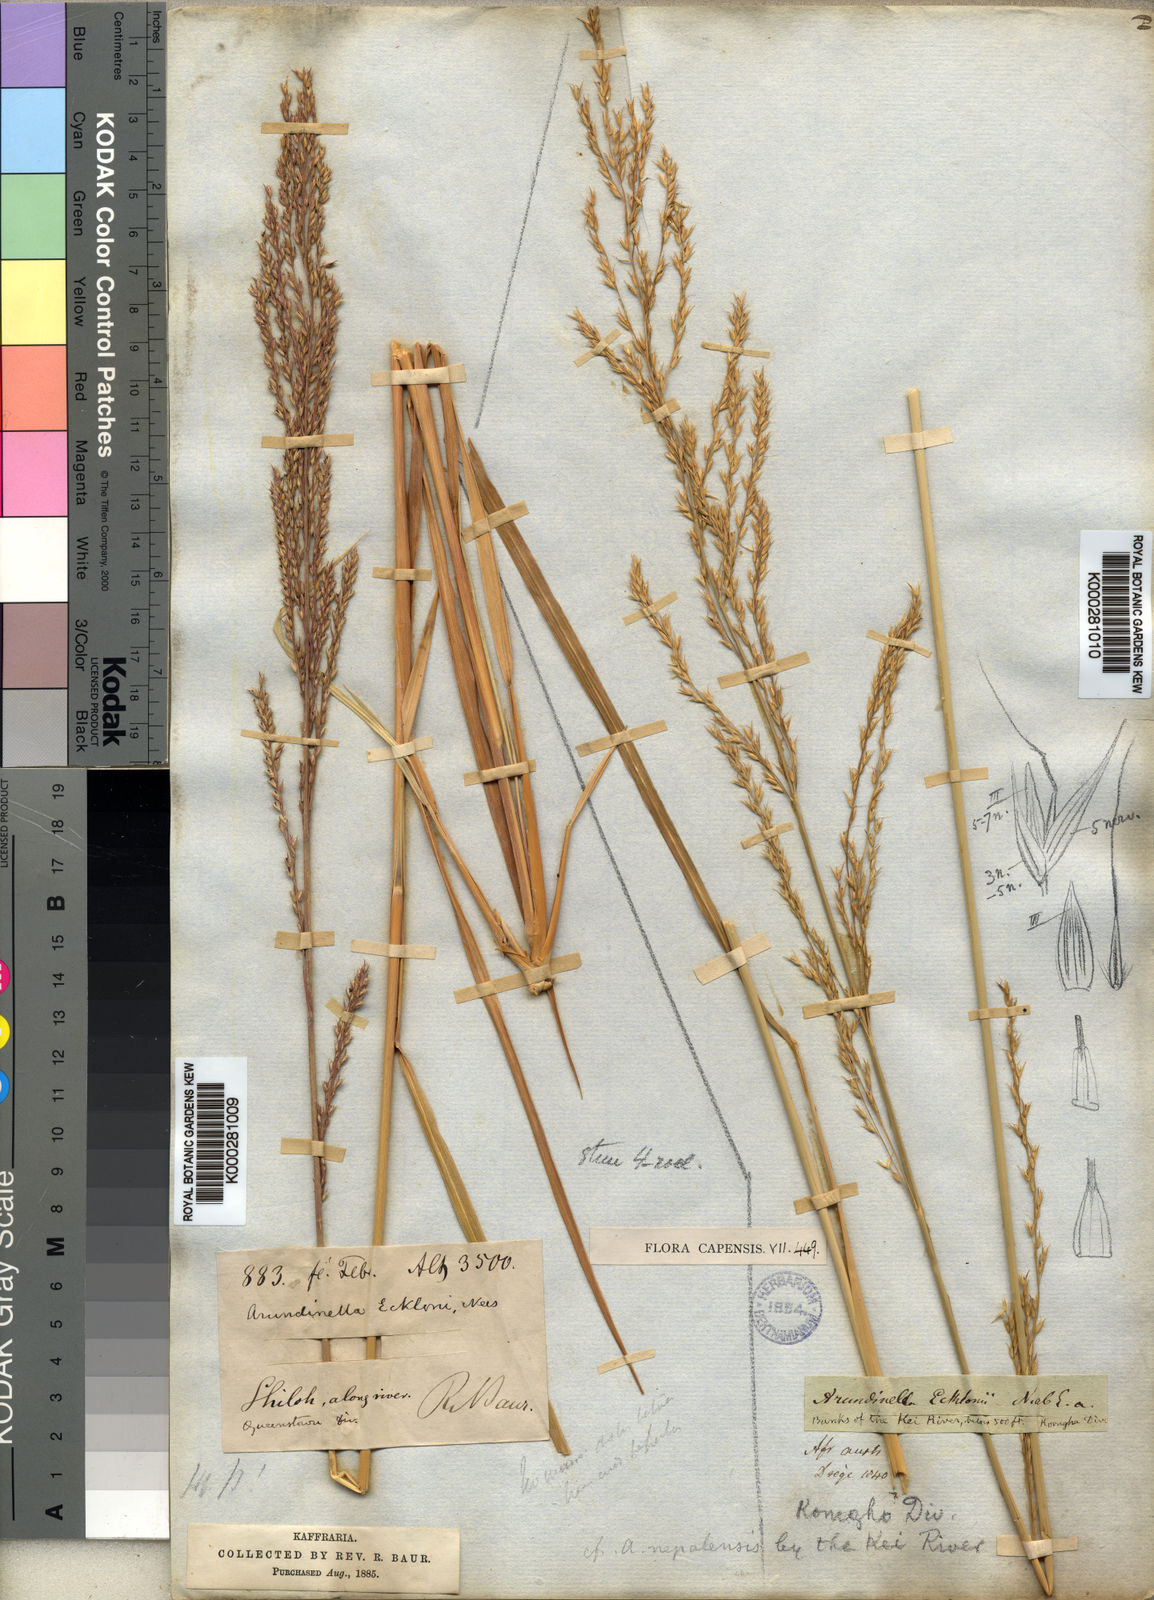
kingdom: Plantae
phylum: Tracheophyta
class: Liliopsida
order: Poales
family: Poaceae
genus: Arundinella
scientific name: Arundinella nepalensis
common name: Reed grass
